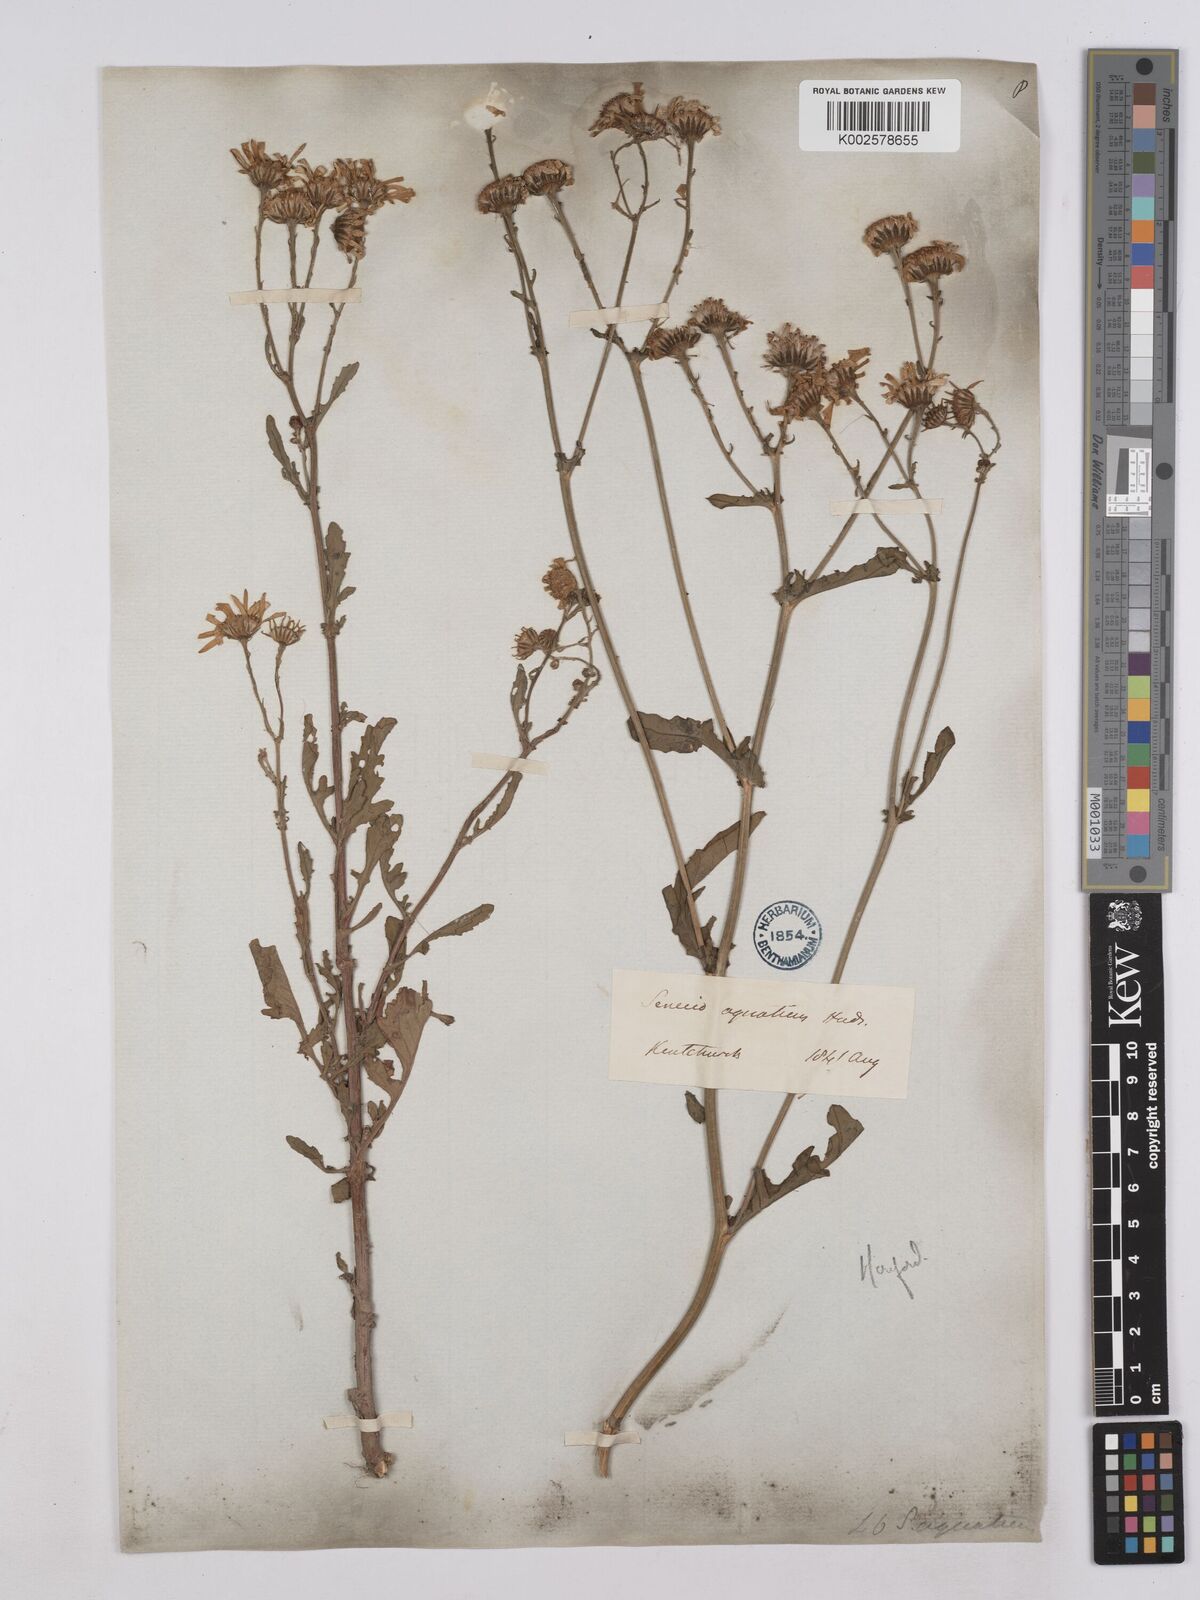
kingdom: Plantae
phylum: Tracheophyta
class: Magnoliopsida
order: Asterales
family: Asteraceae
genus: Jacobaea
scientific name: Jacobaea aquatica
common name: Water ragwort
